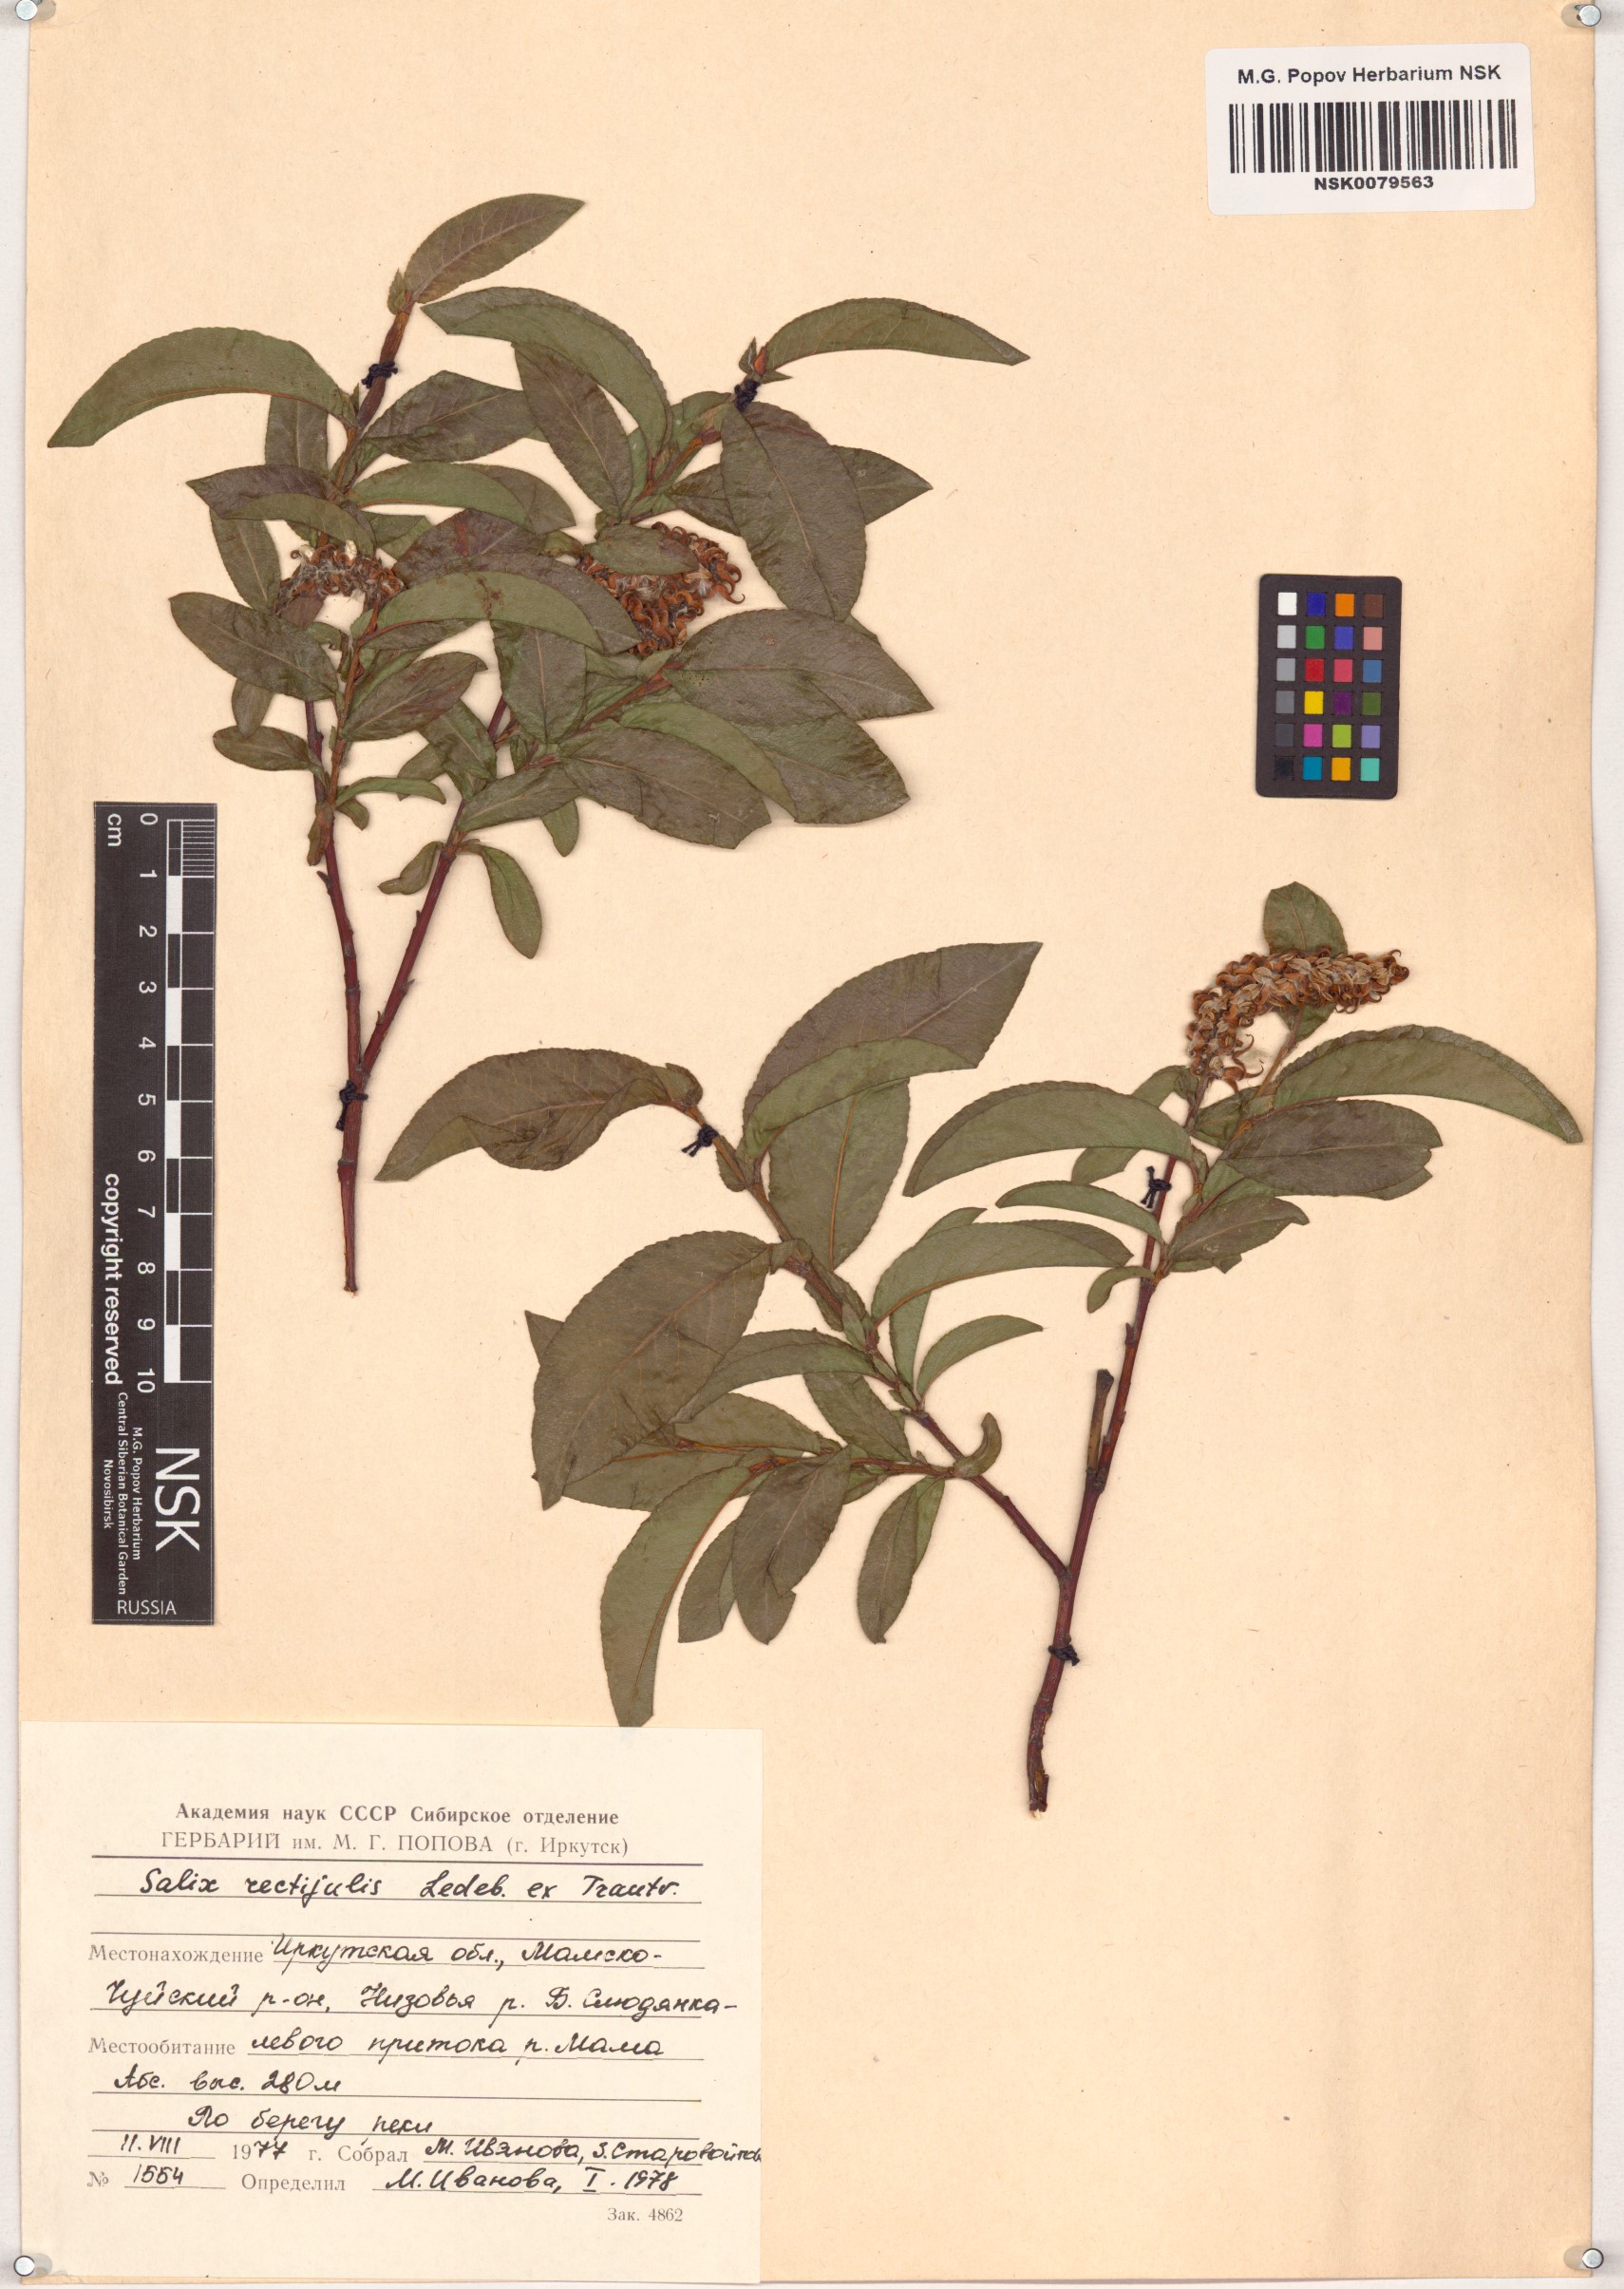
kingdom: Plantae
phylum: Tracheophyta
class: Magnoliopsida
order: Malpighiales
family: Salicaceae
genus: Salix
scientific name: Salix rectijulis
